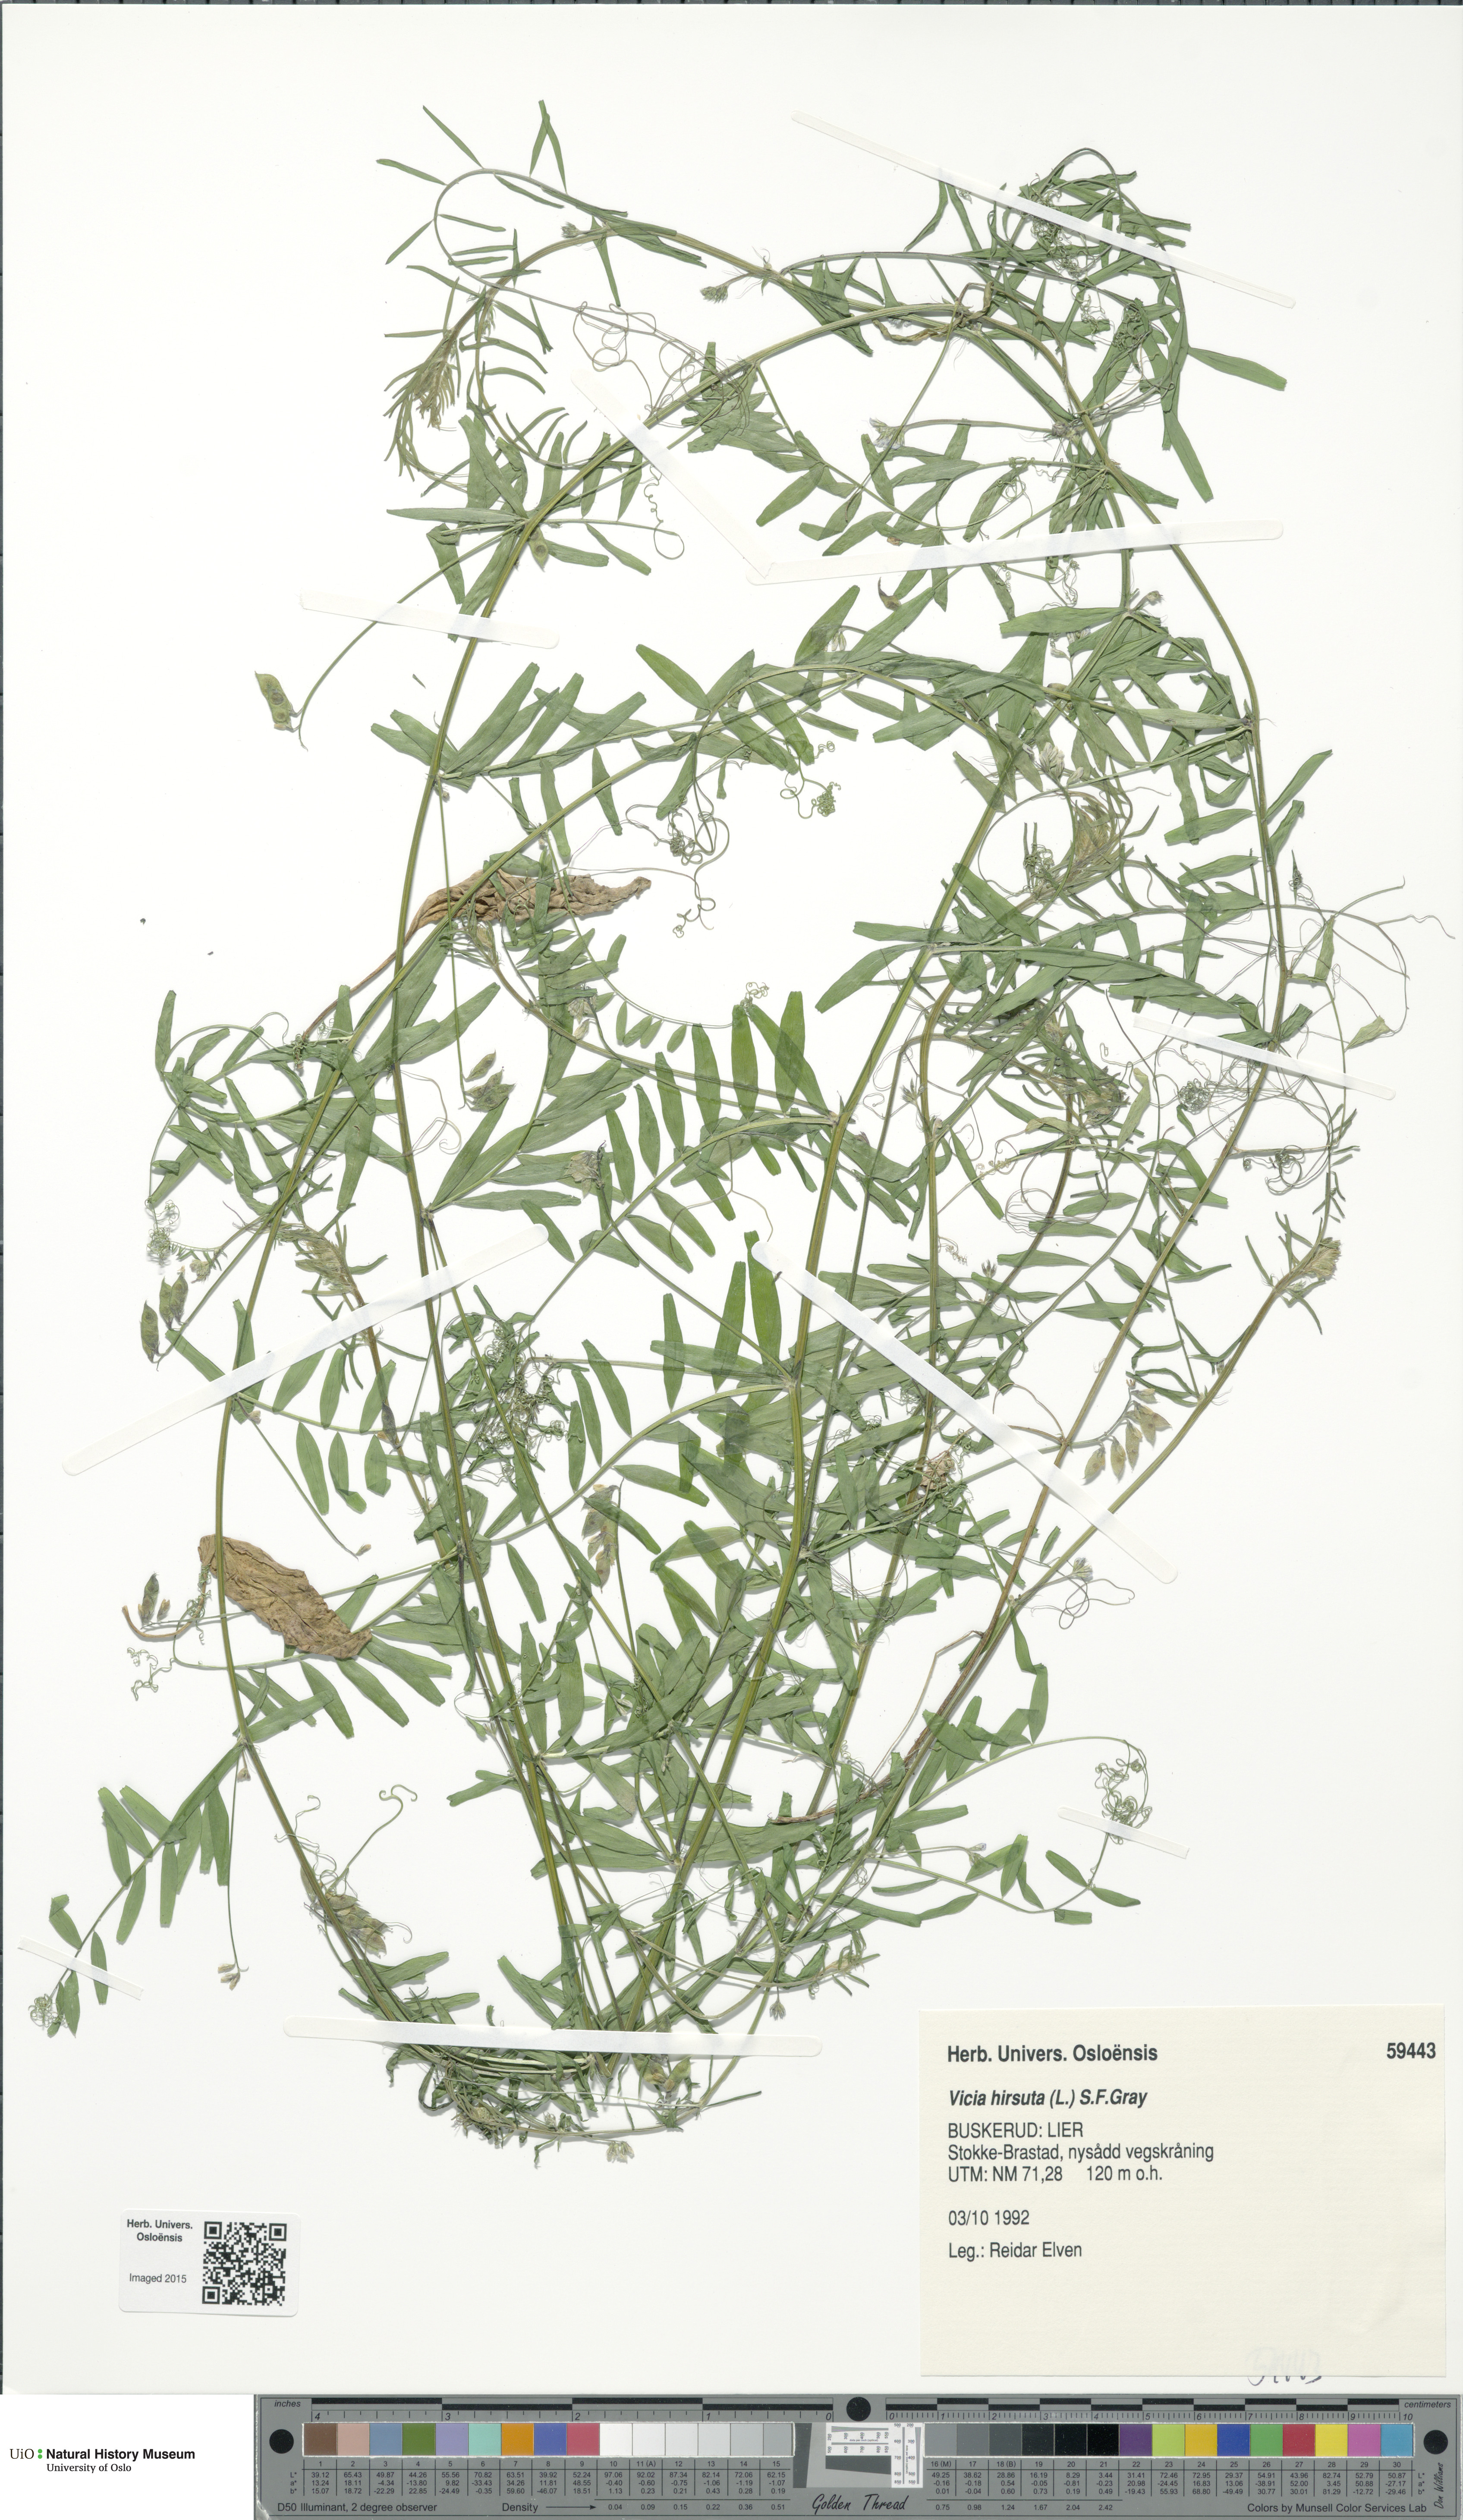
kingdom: Plantae
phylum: Tracheophyta
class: Magnoliopsida
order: Fabales
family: Fabaceae
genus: Vicia
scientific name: Vicia hirsuta
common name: Tiny vetch
